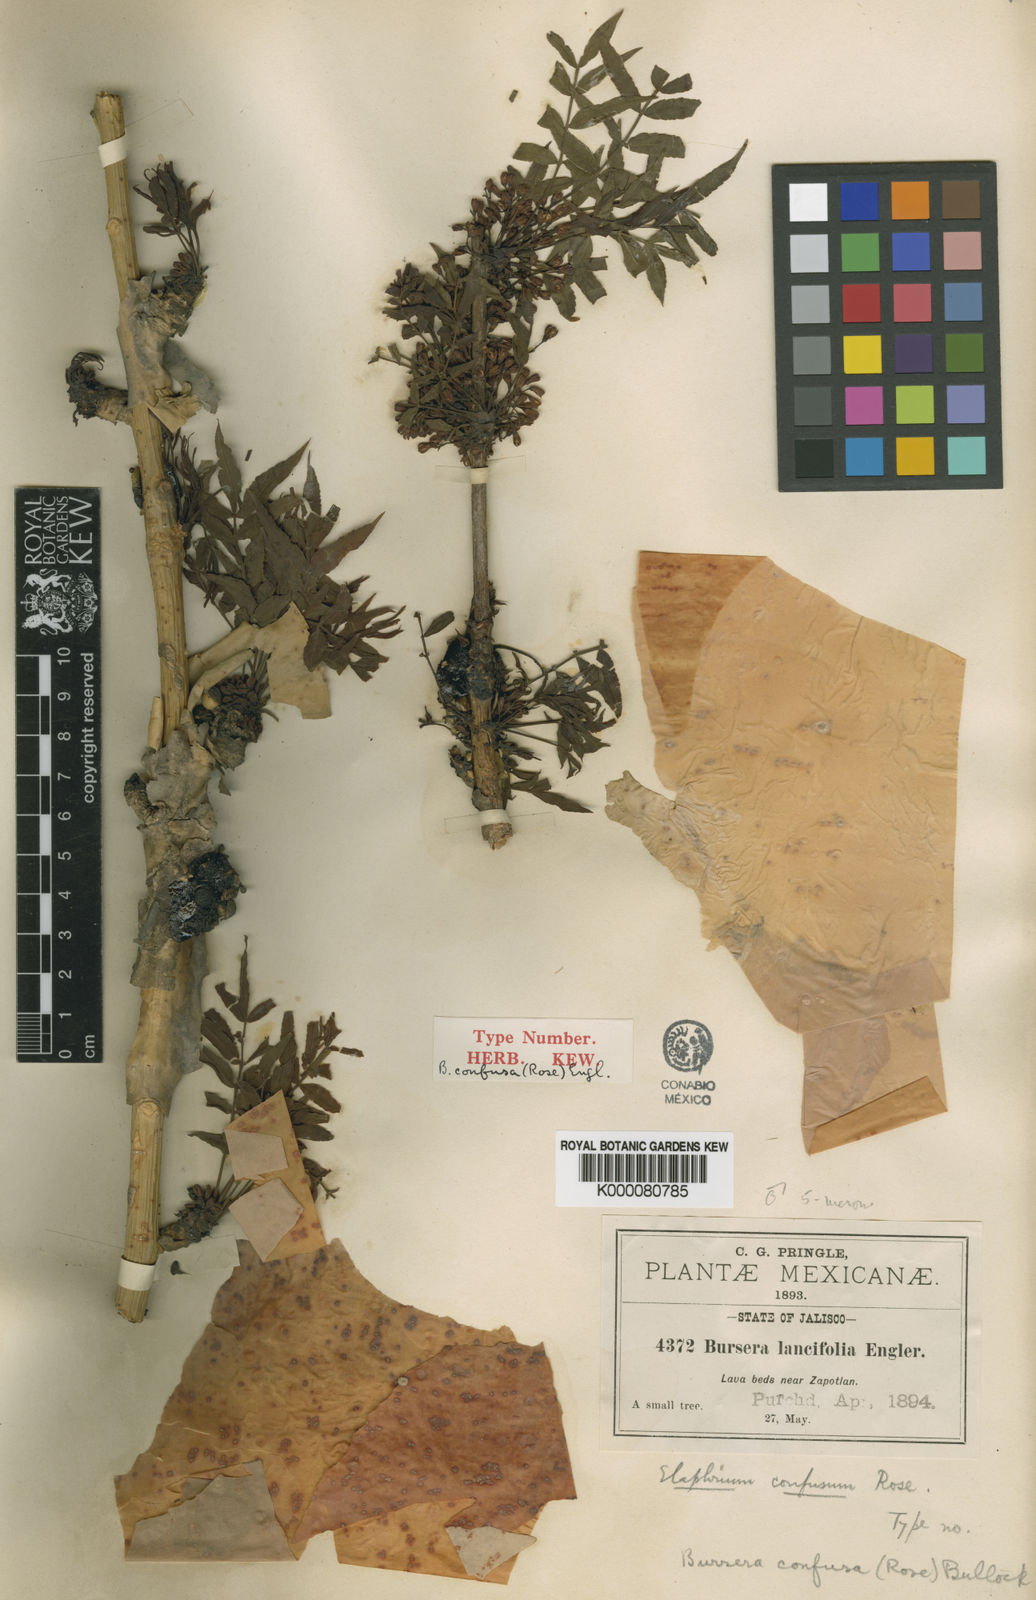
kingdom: Plantae
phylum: Tracheophyta
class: Magnoliopsida
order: Sapindales
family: Burseraceae
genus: Bursera
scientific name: Bursera confusa
